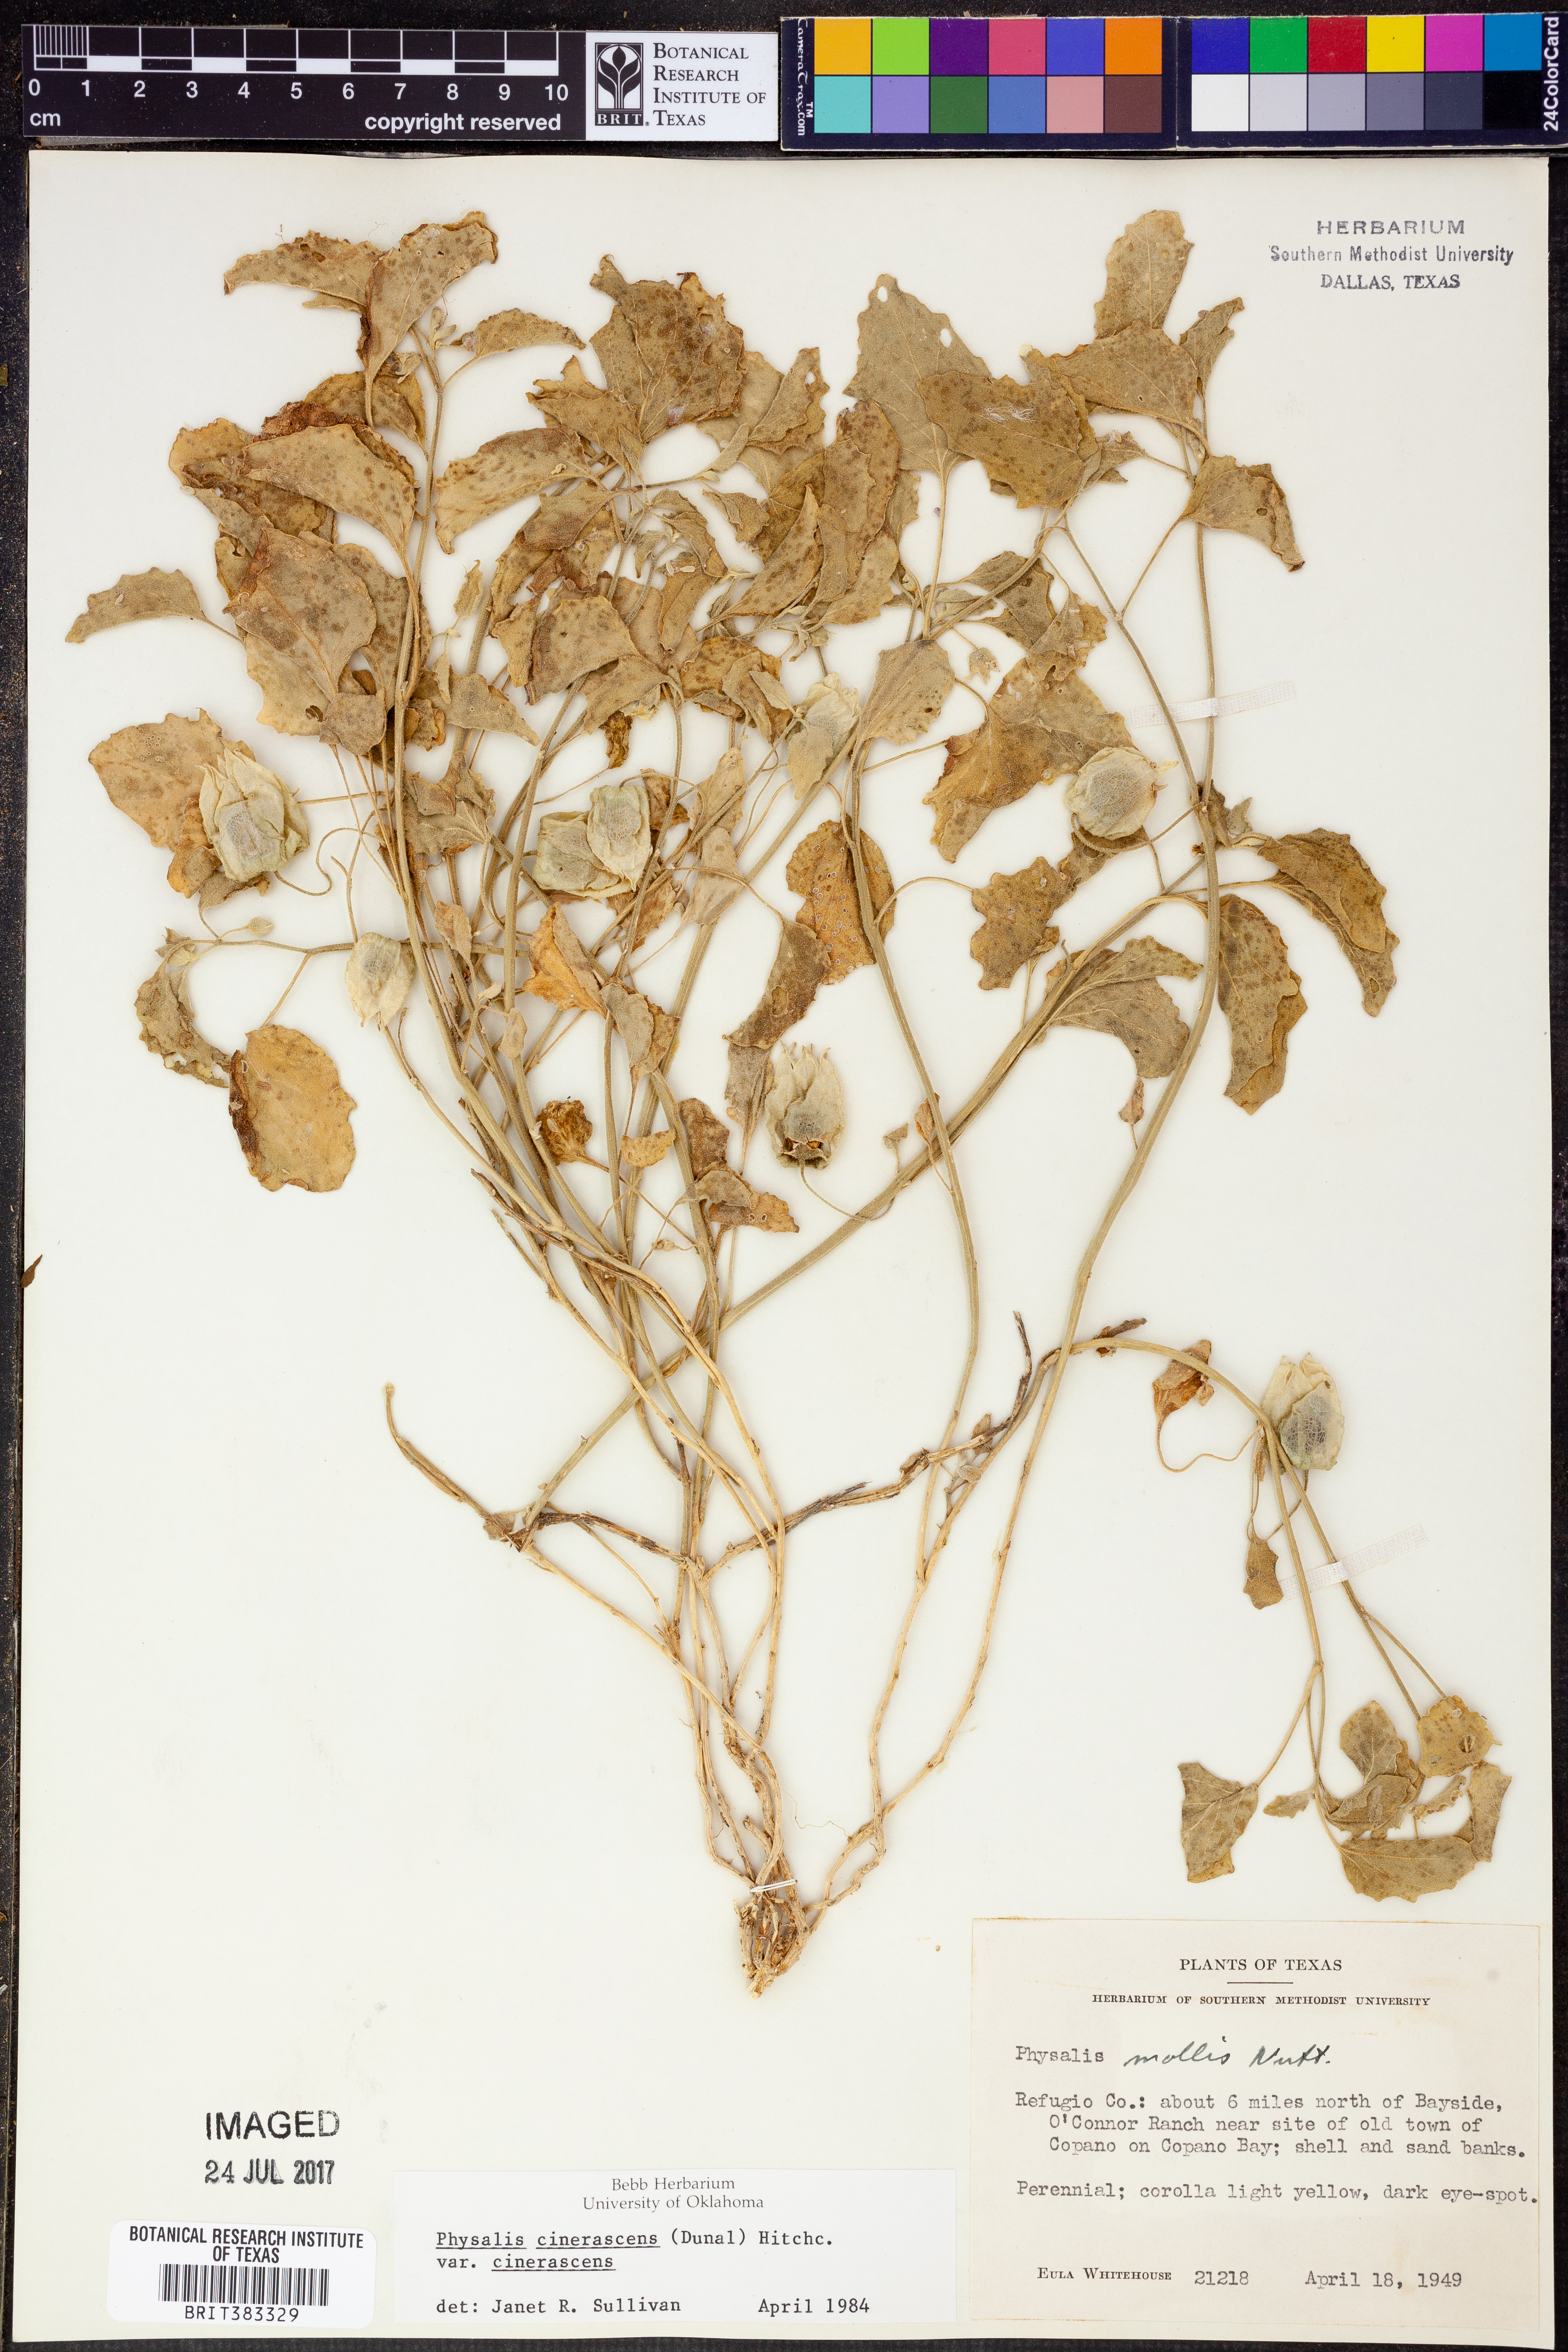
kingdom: Plantae
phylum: Tracheophyta
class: Magnoliopsida
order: Solanales
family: Solanaceae
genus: Physalis
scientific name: Physalis cinerascens
